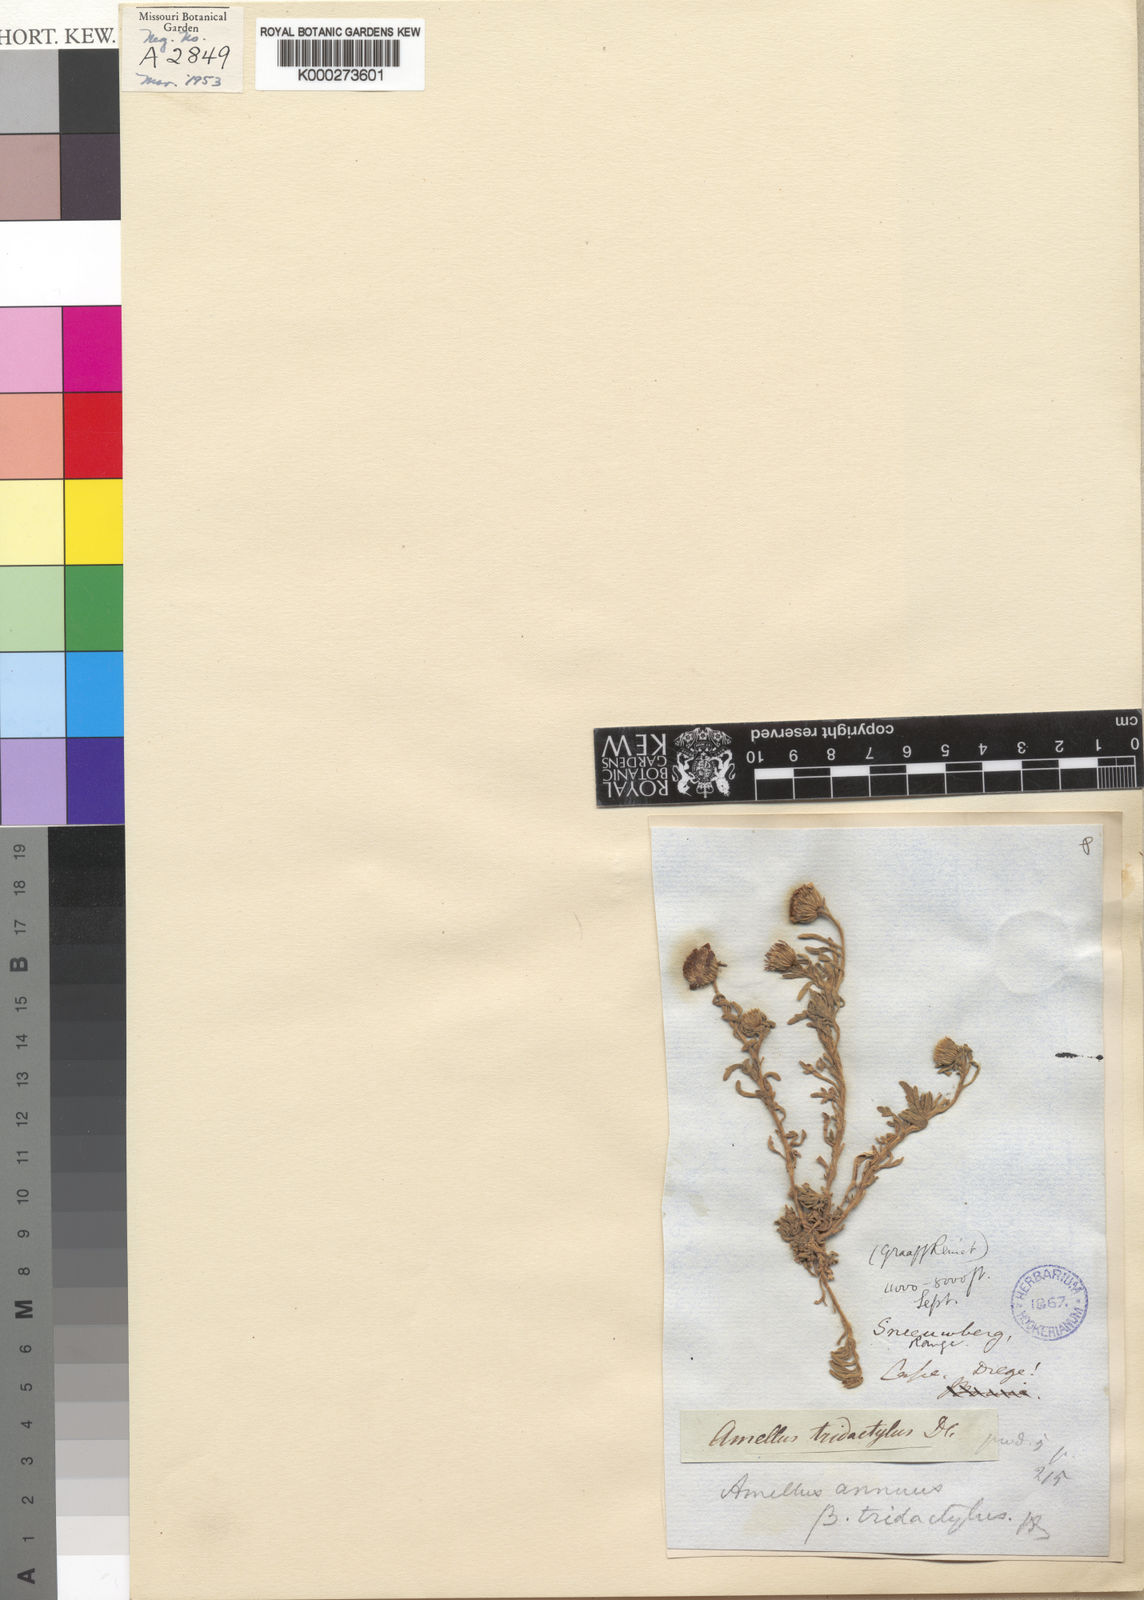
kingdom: Plantae
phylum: Tracheophyta
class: Magnoliopsida
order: Asterales
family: Asteraceae
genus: Amellus
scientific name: Amellus strigosus
